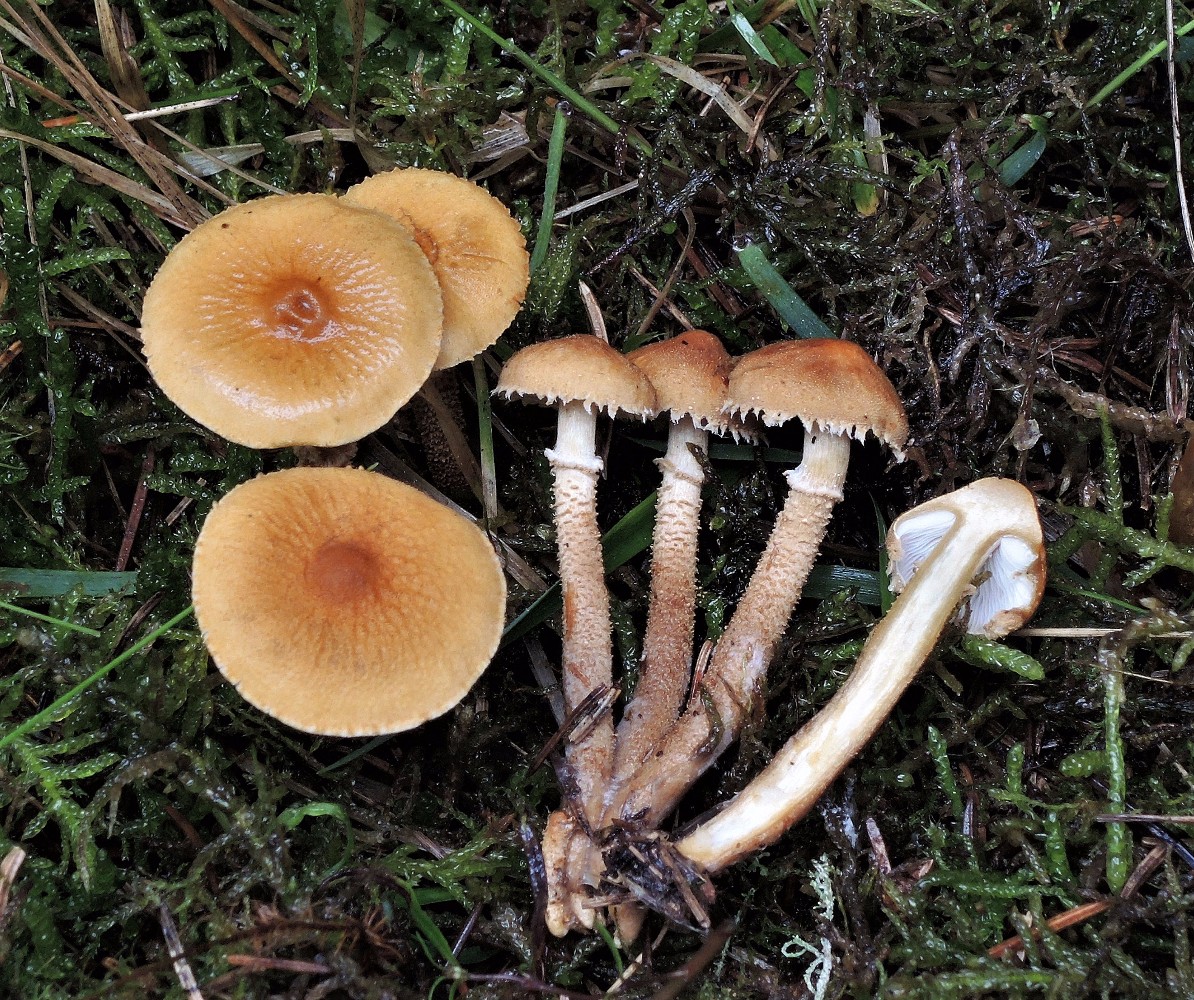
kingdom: Fungi
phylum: Basidiomycota
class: Agaricomycetes
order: Agaricales
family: Tricholomataceae
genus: Cystoderma
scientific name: Cystoderma amianthinum
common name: okkergul grynhat
